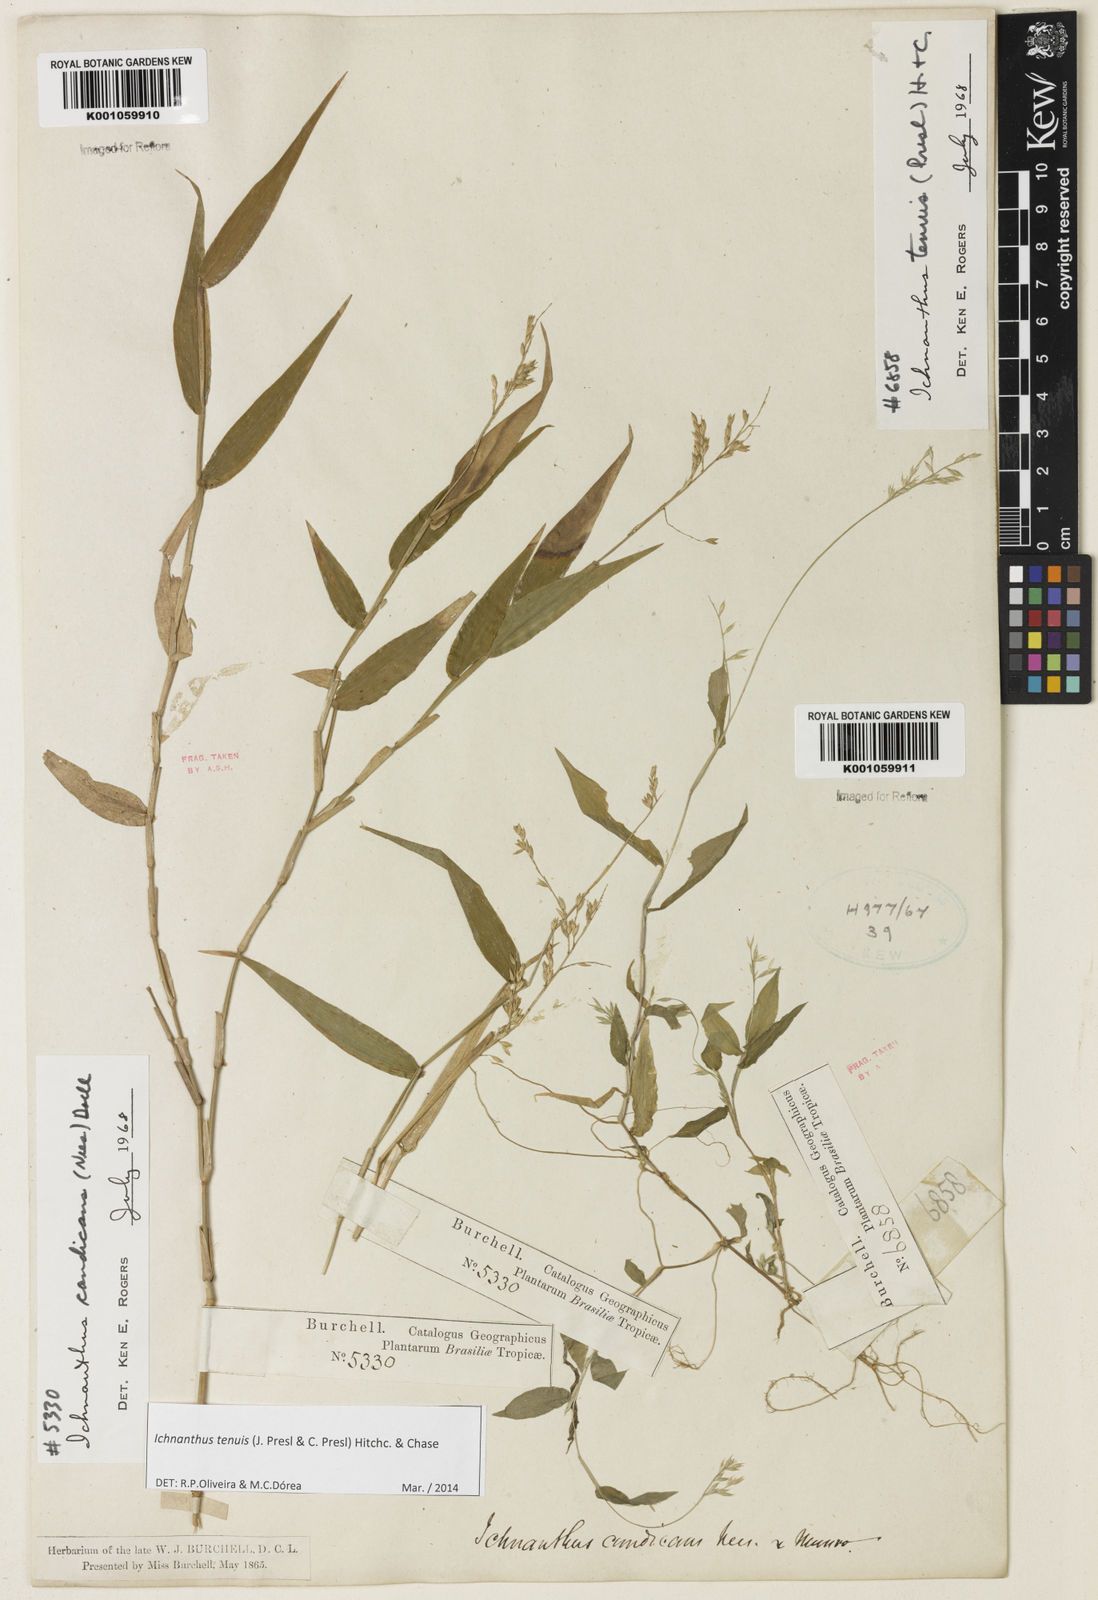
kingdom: Plantae
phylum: Tracheophyta
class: Liliopsida
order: Poales
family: Poaceae
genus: Ichnanthus
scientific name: Ichnanthus tenuis
